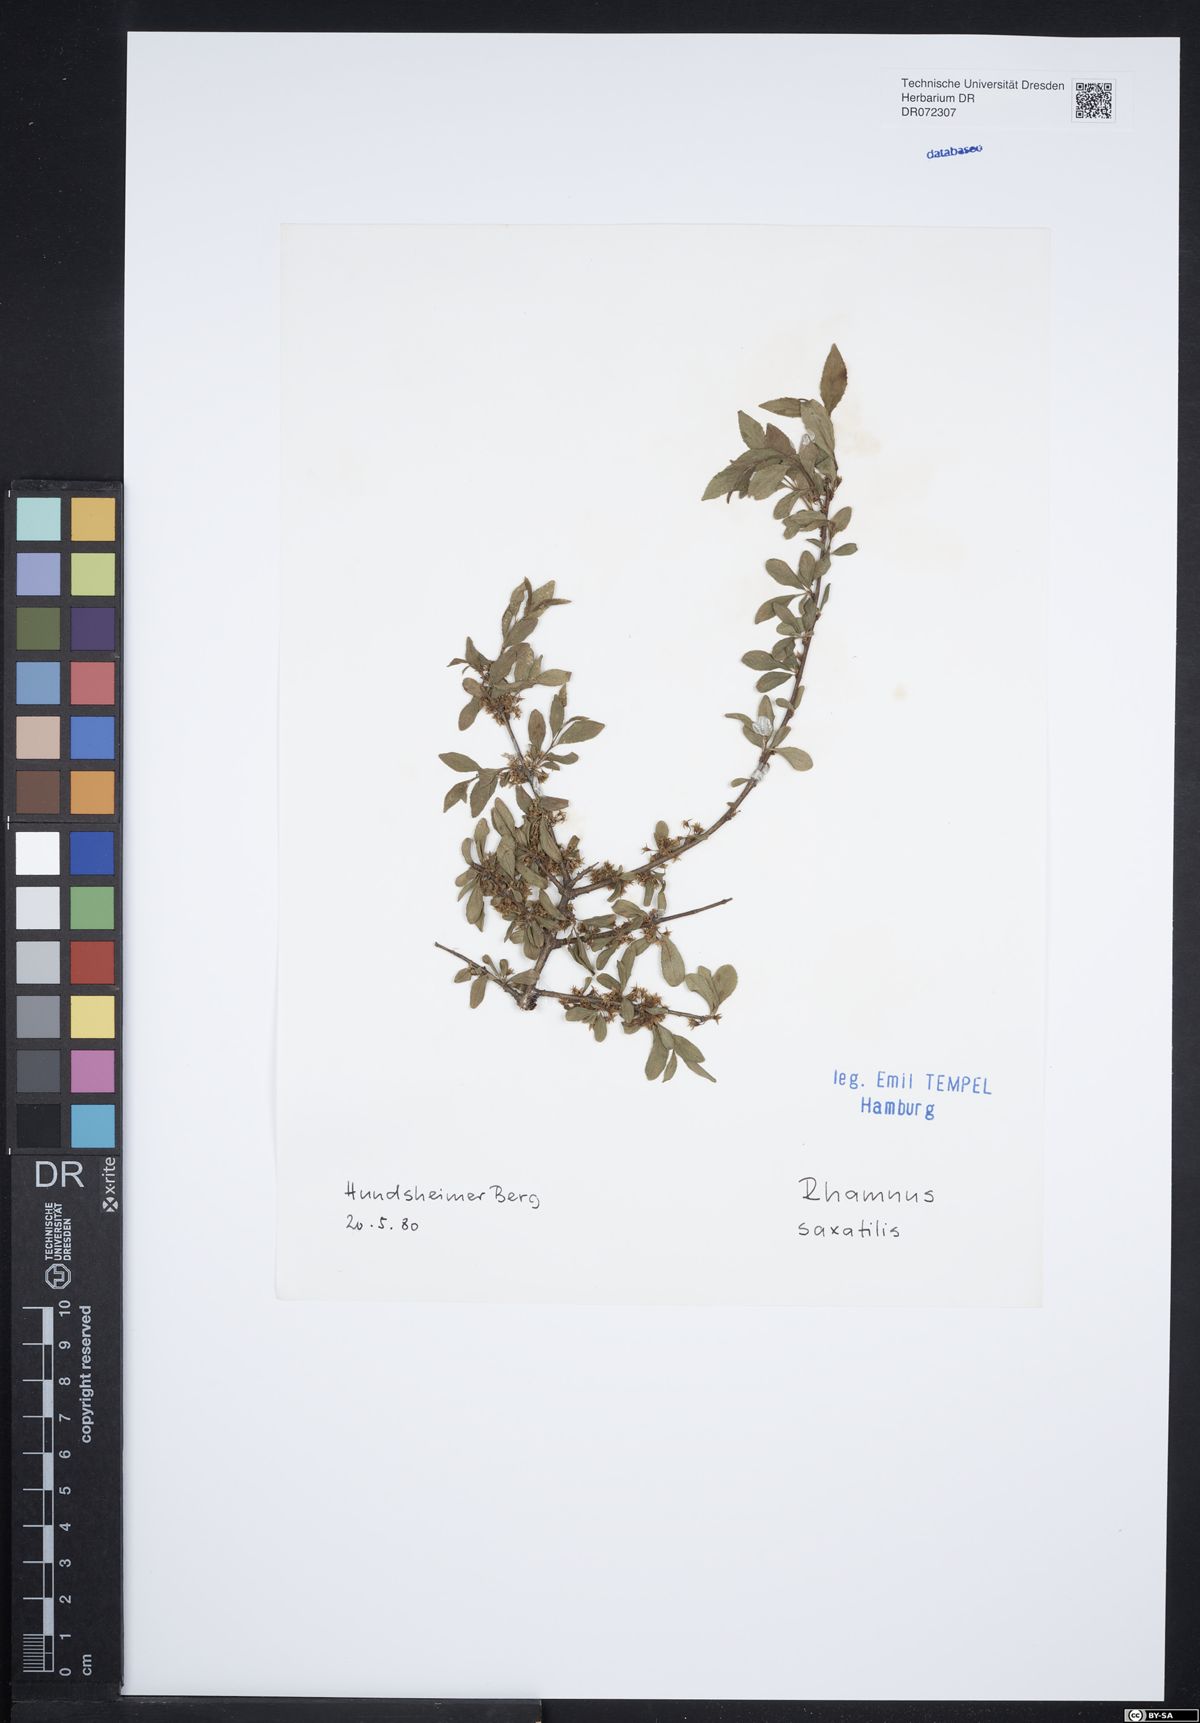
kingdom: Plantae
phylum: Tracheophyta
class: Magnoliopsida
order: Rosales
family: Rhamnaceae
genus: Rhamnus
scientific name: Rhamnus saxatilis
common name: Rock buckthorn
